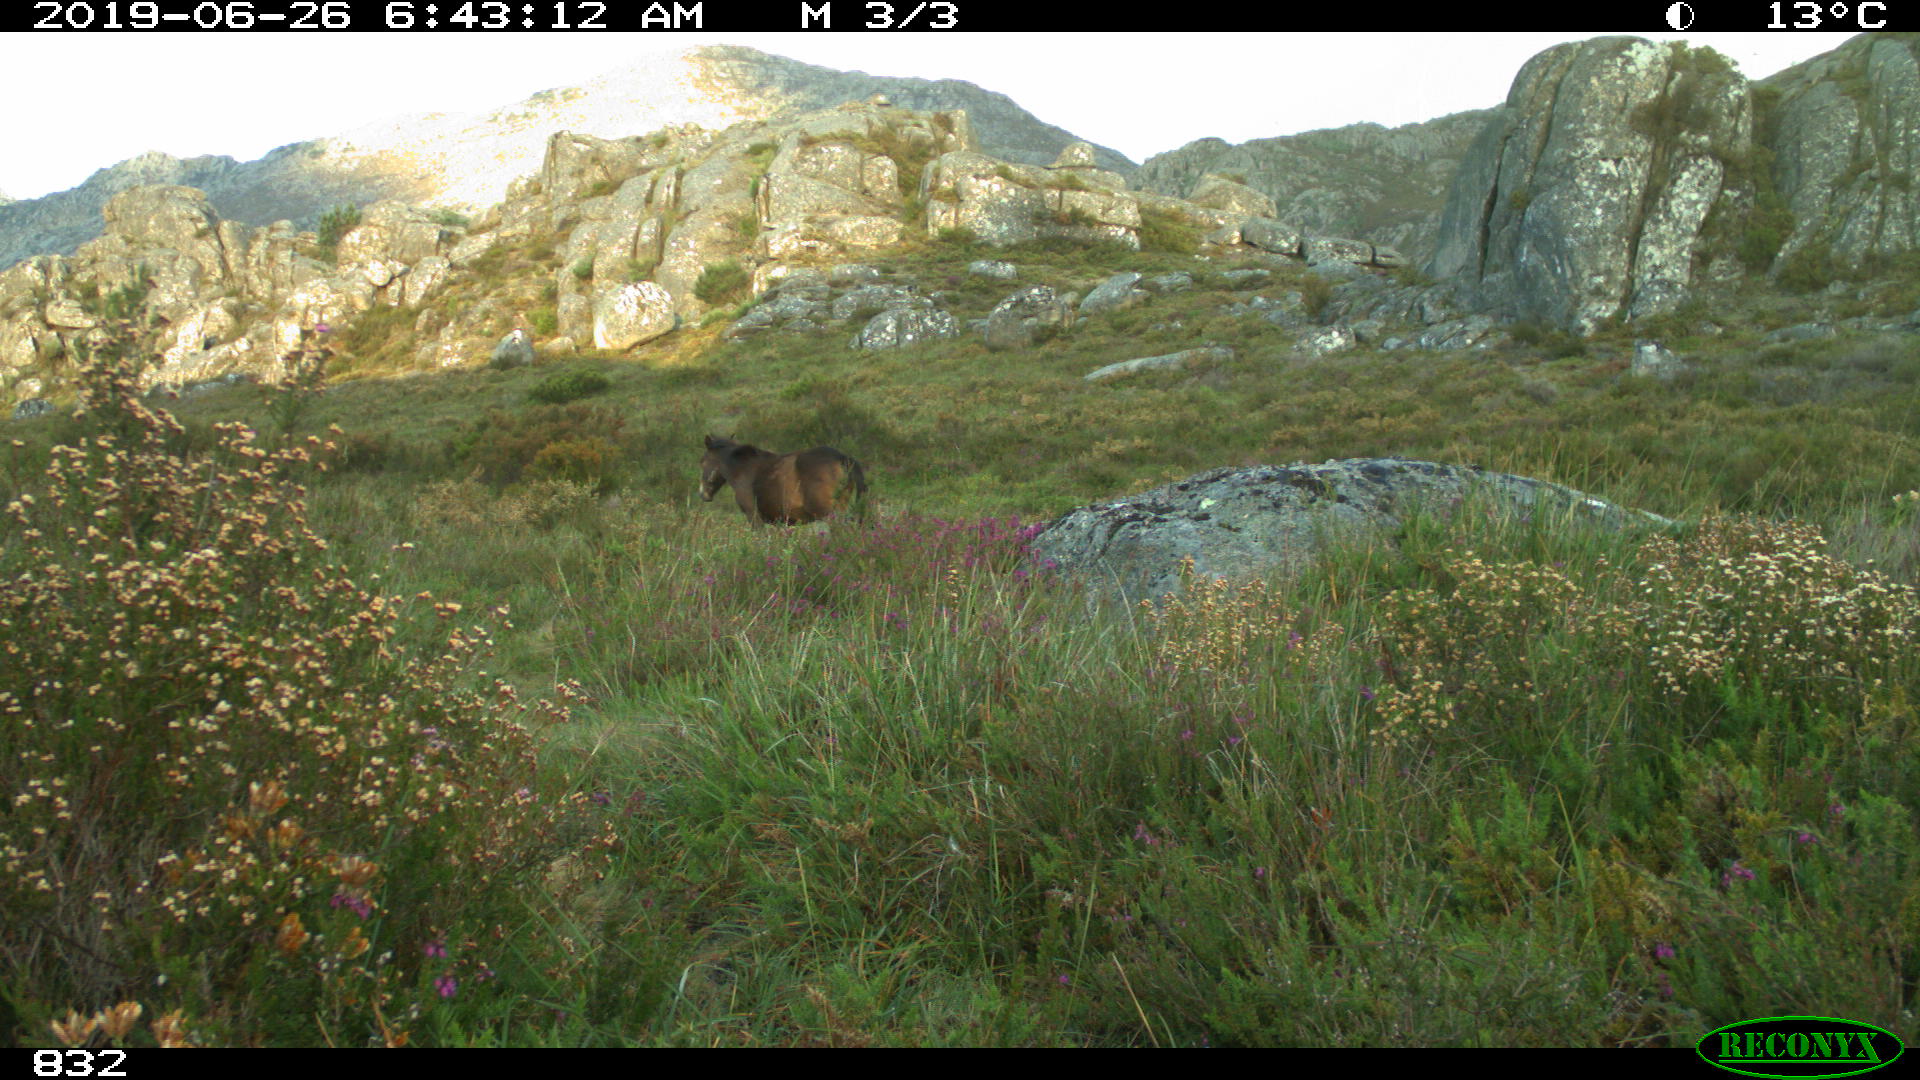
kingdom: Animalia
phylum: Chordata
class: Mammalia
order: Perissodactyla
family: Equidae
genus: Equus
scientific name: Equus caballus
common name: Horse
